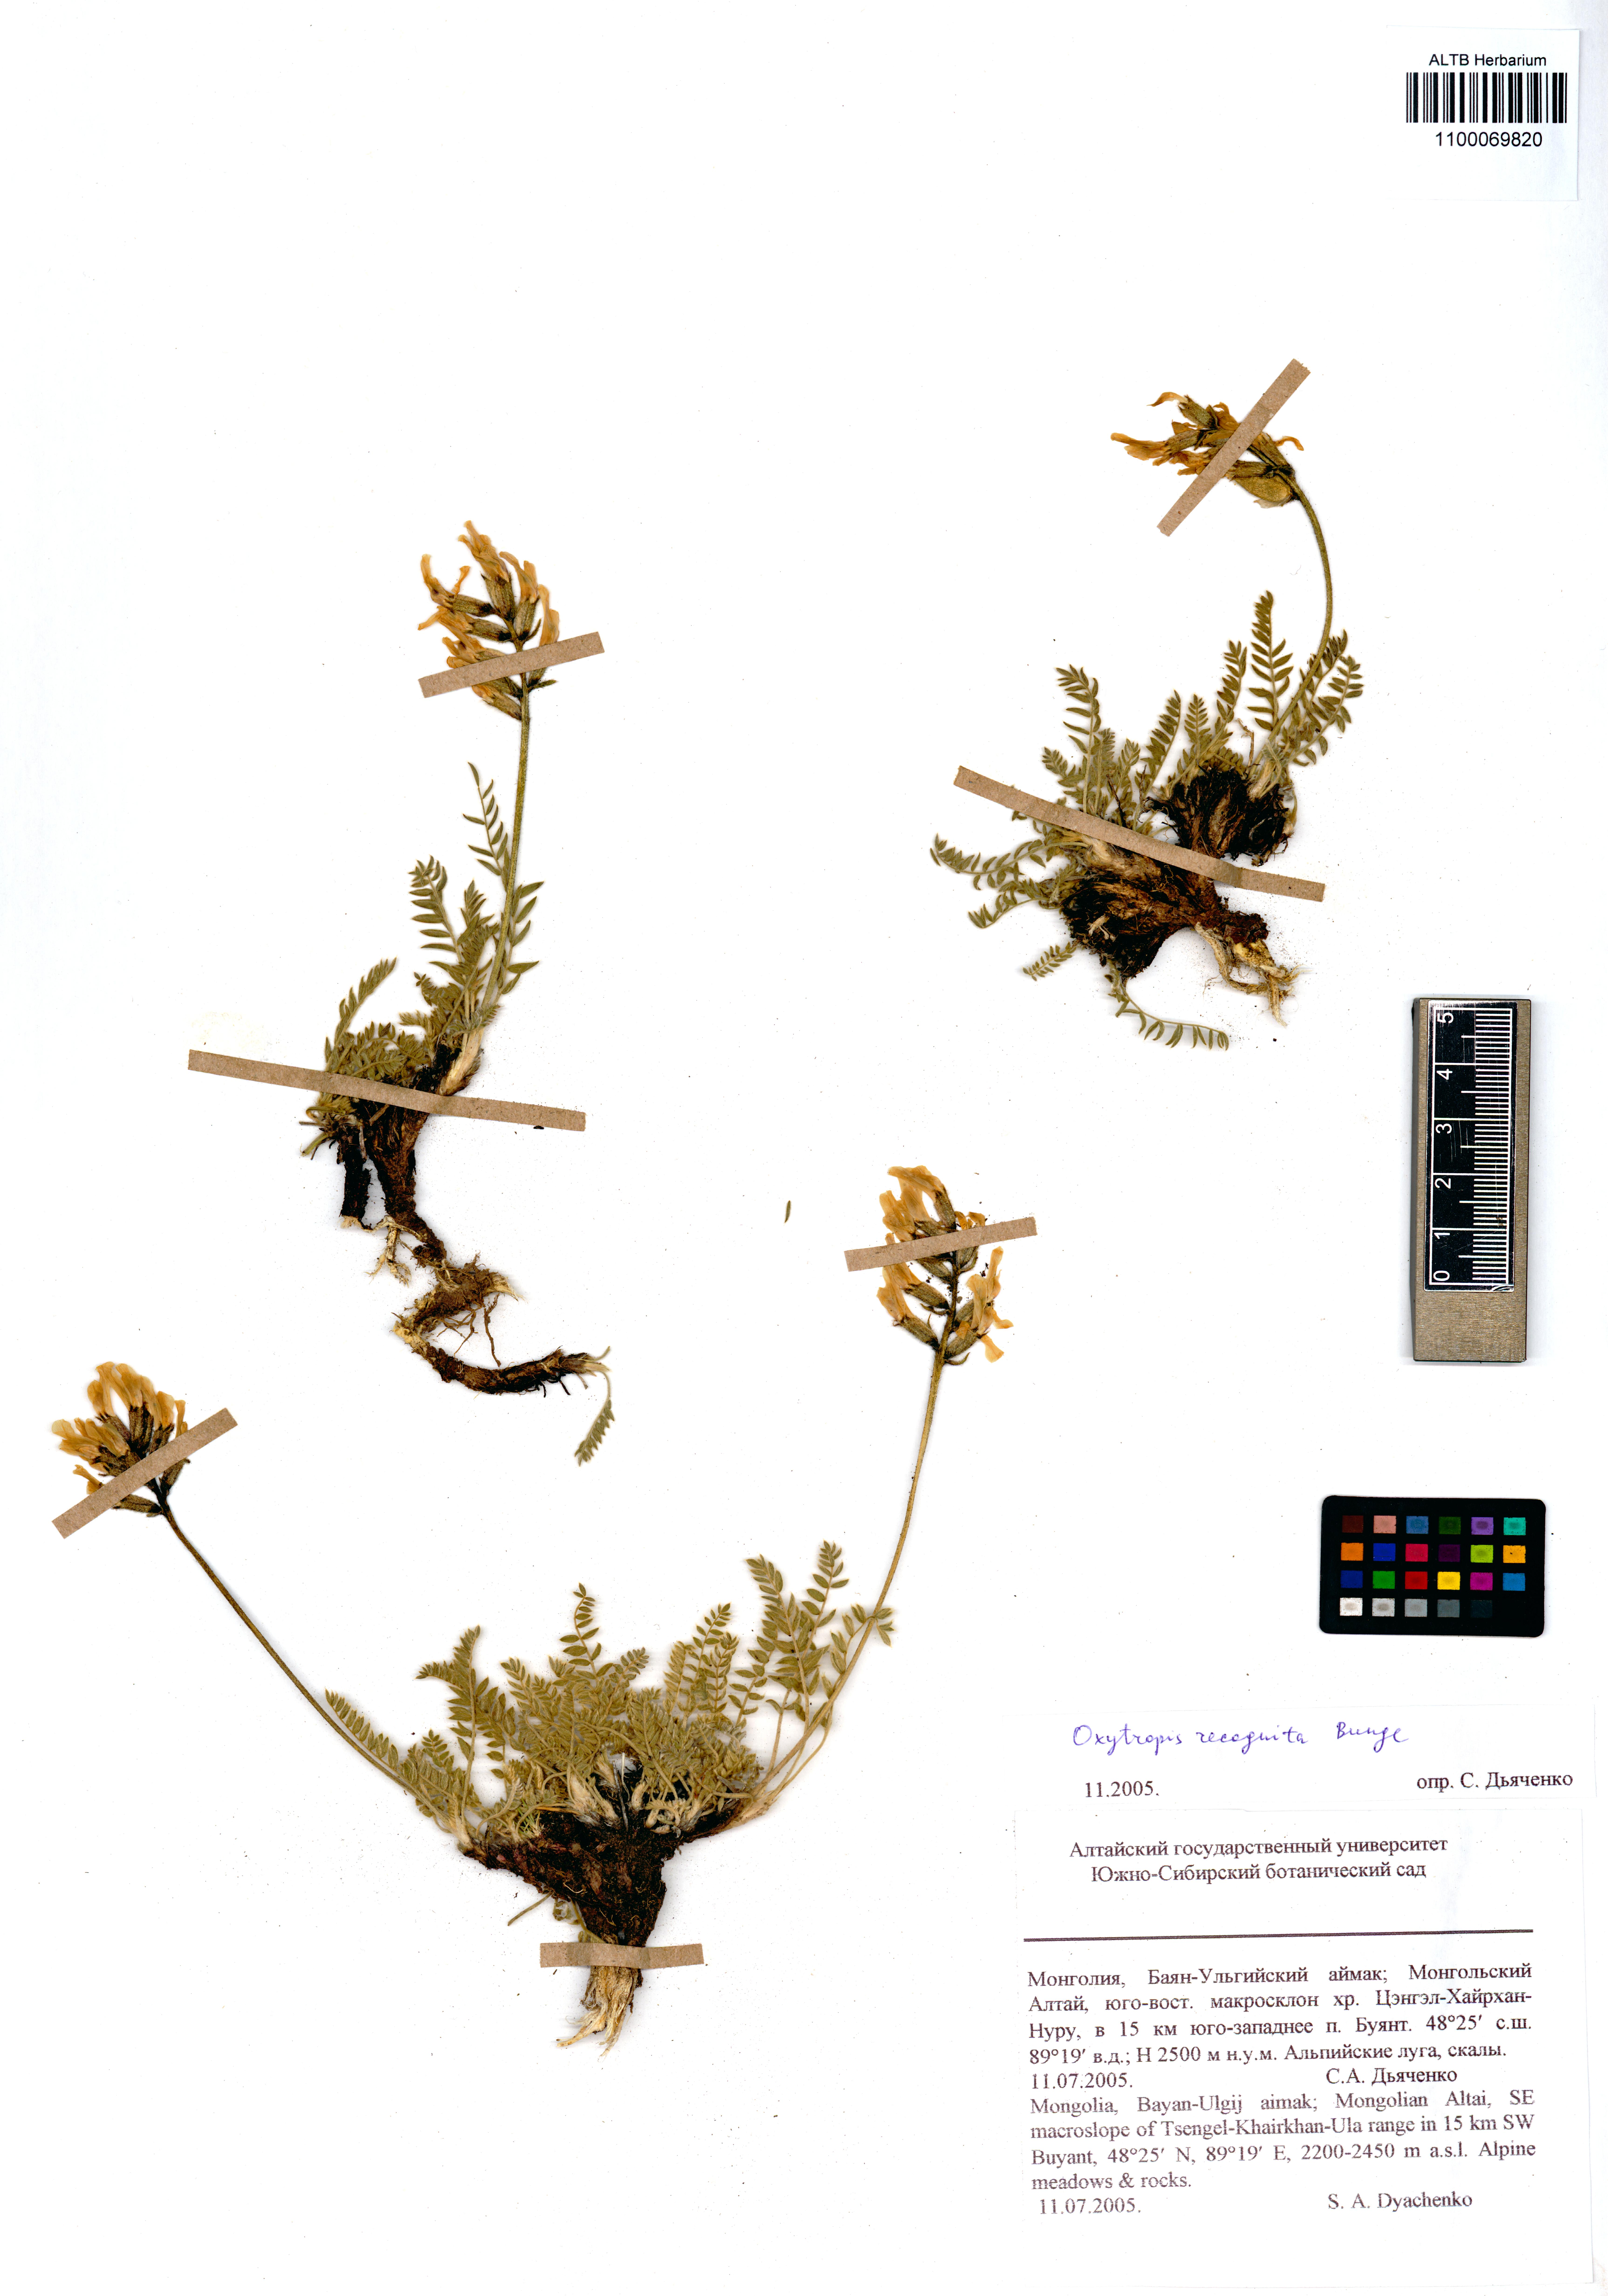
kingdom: Plantae
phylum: Tracheophyta
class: Magnoliopsida
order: Fabales
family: Fabaceae
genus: Oxytropis
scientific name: Oxytropis recognita
